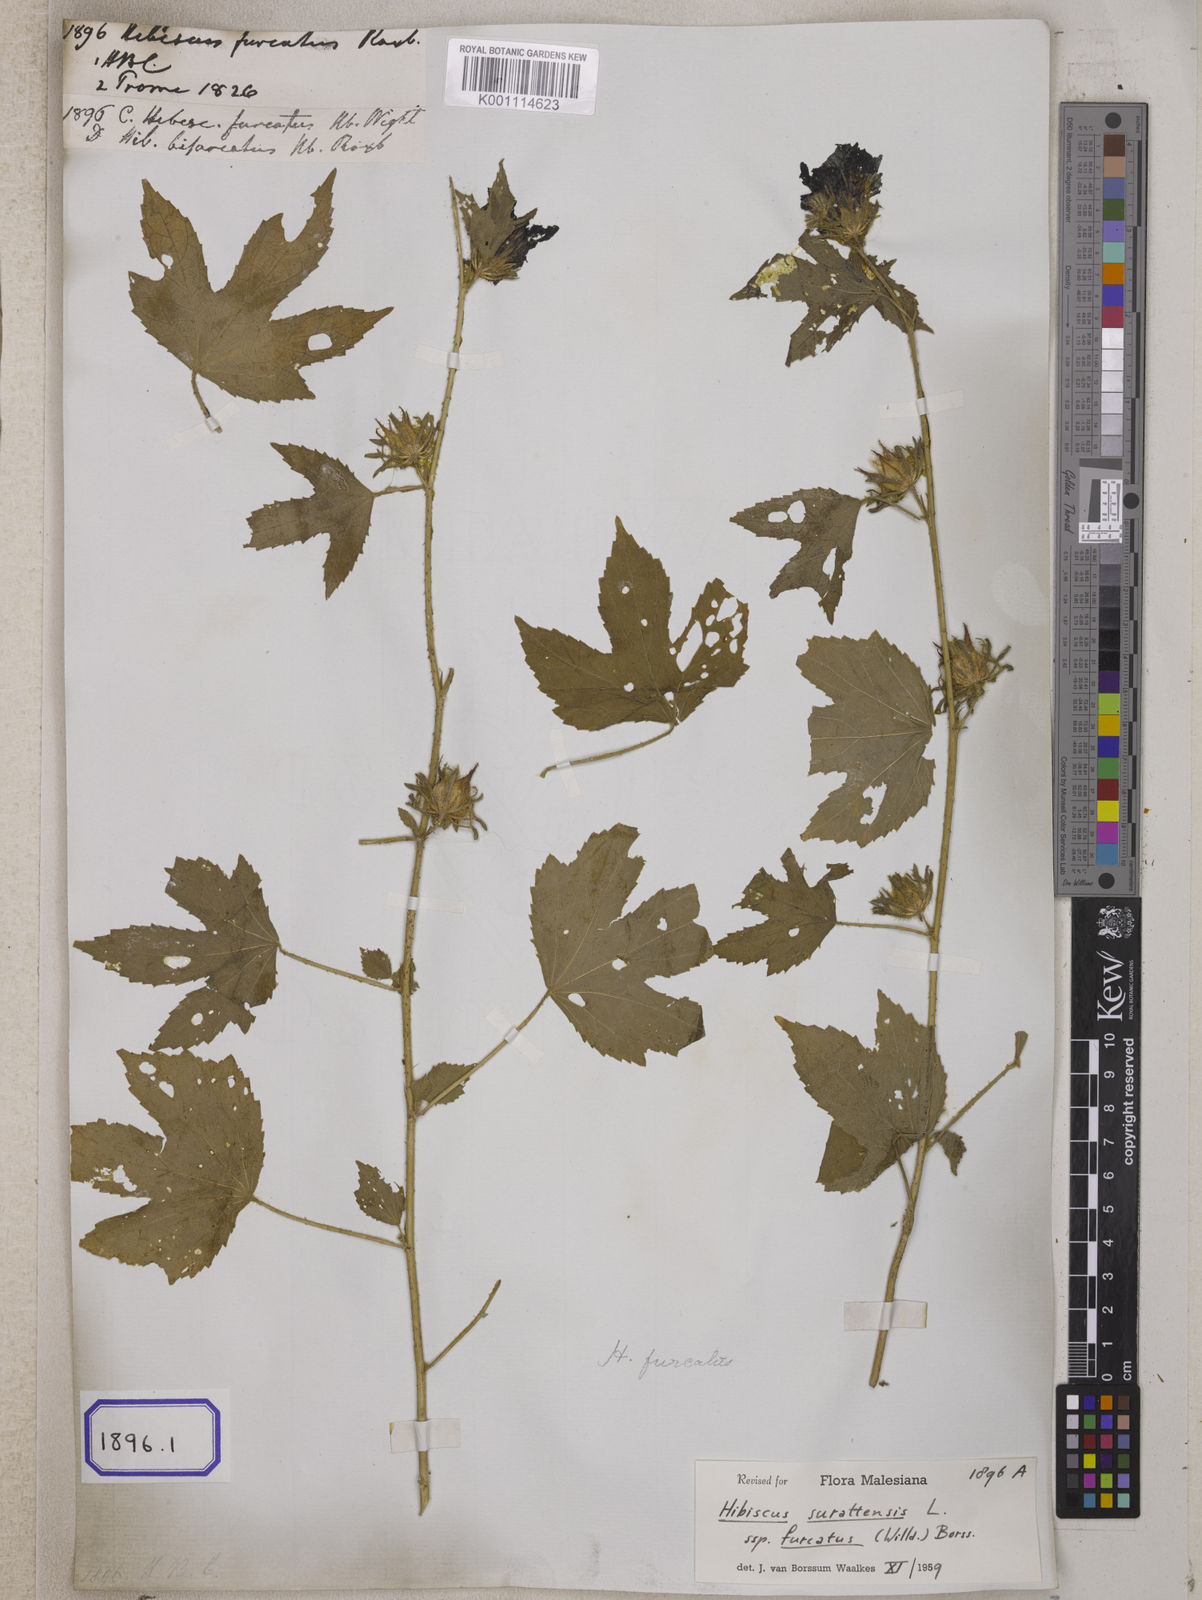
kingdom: Plantae
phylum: Tracheophyta
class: Magnoliopsida
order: Malvales
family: Malvaceae
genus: Hibiscus
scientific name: Hibiscus
